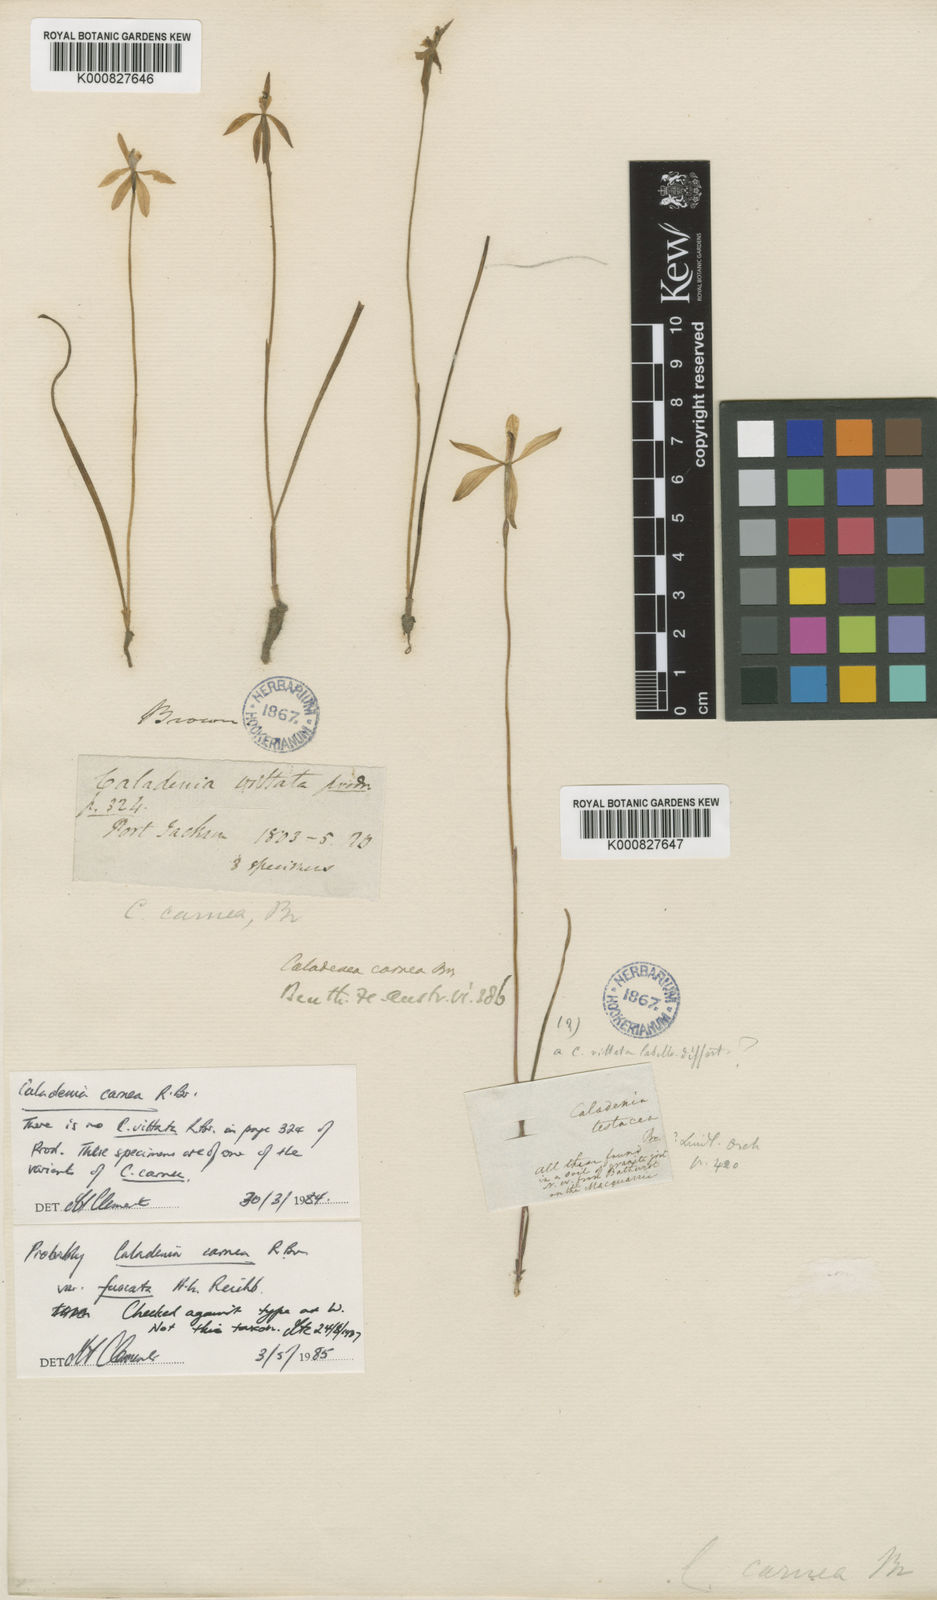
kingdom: Plantae
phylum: Tracheophyta
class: Liliopsida
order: Asparagales
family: Orchidaceae
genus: Caladenia
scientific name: Caladenia carnea
